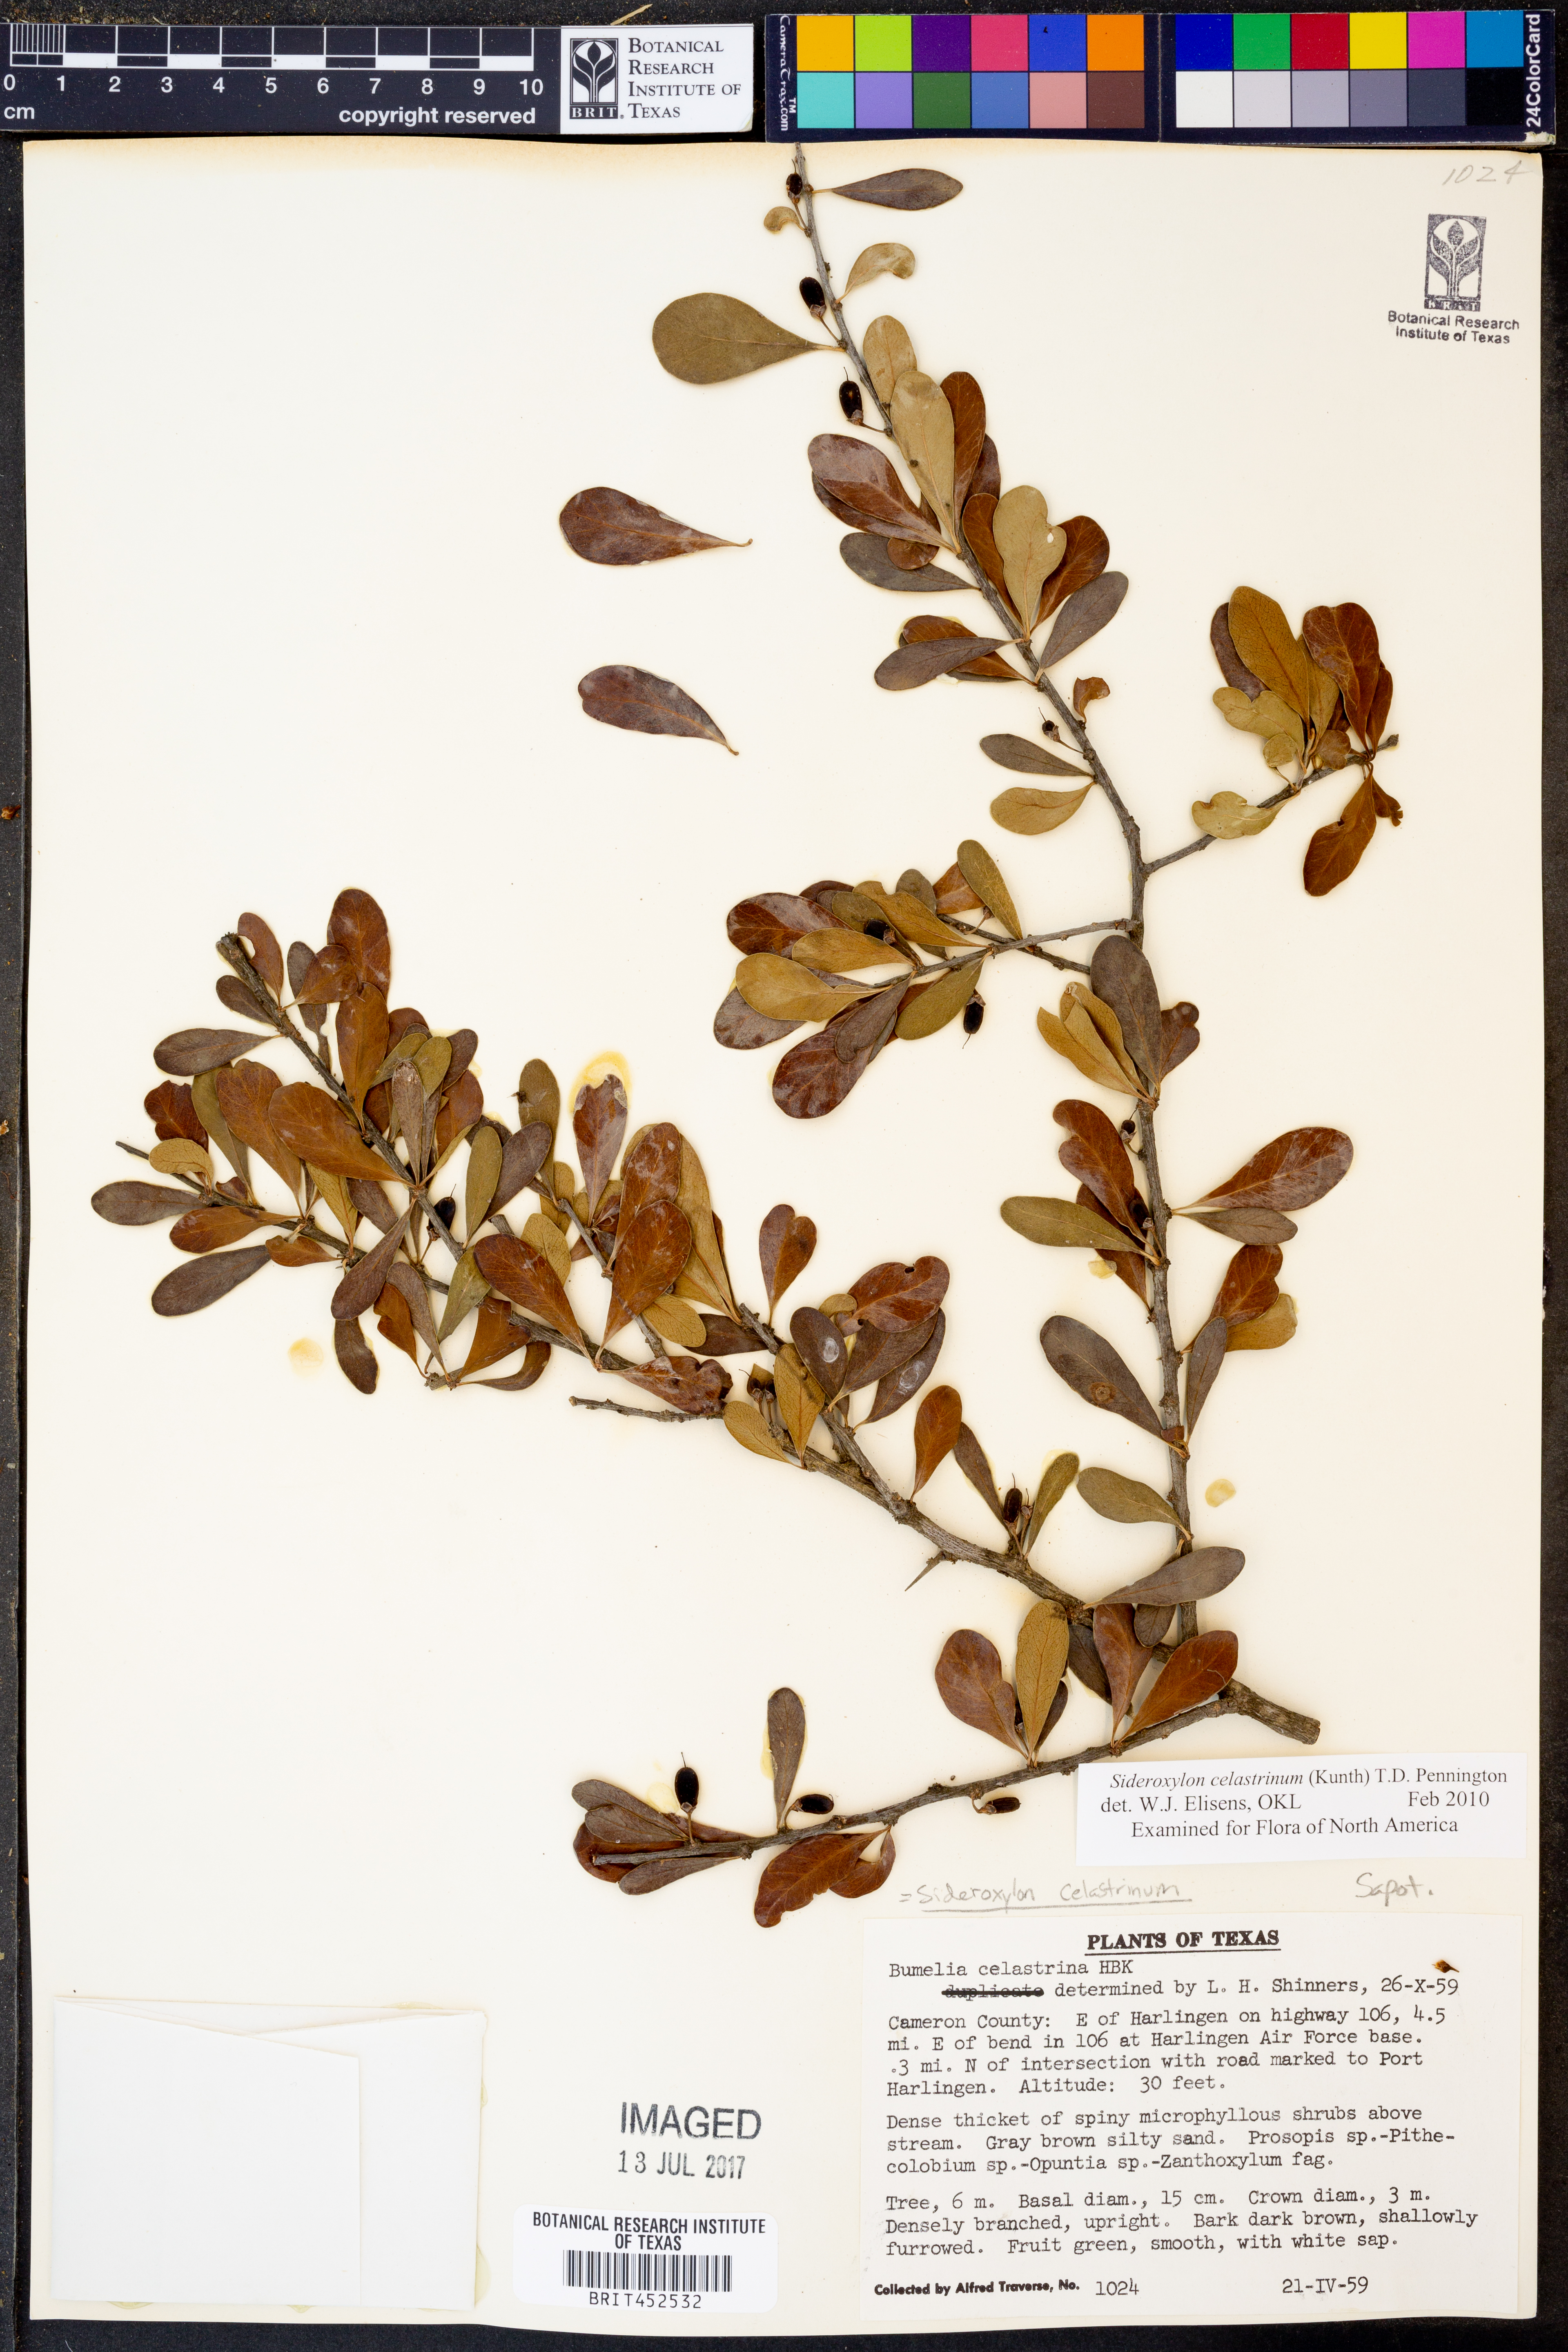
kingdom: Plantae
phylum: Tracheophyta
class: Magnoliopsida
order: Ericales
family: Sapotaceae
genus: Sideroxylon
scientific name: Sideroxylon celastrinum
